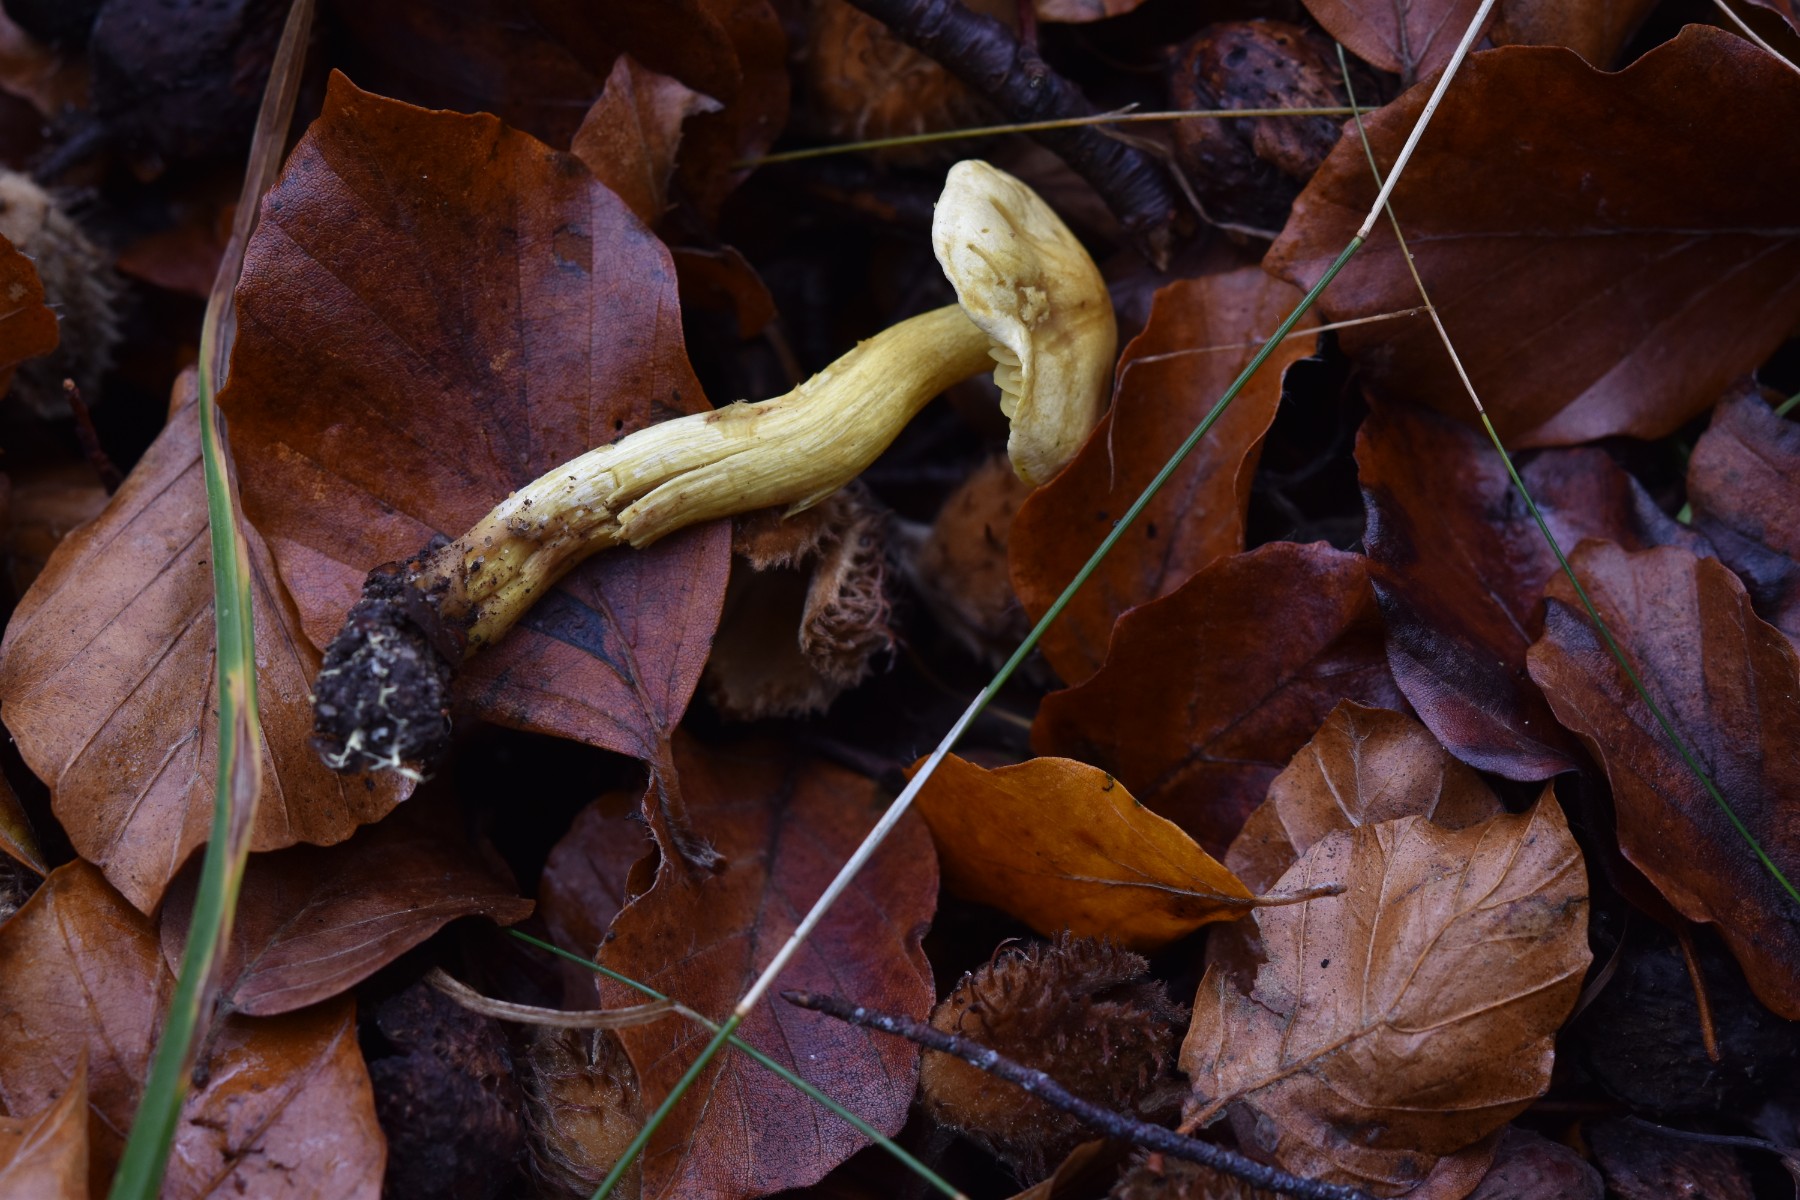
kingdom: Fungi
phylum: Basidiomycota
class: Agaricomycetes
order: Agaricales
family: Tricholomataceae
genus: Tricholoma
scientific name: Tricholoma sulphureum
